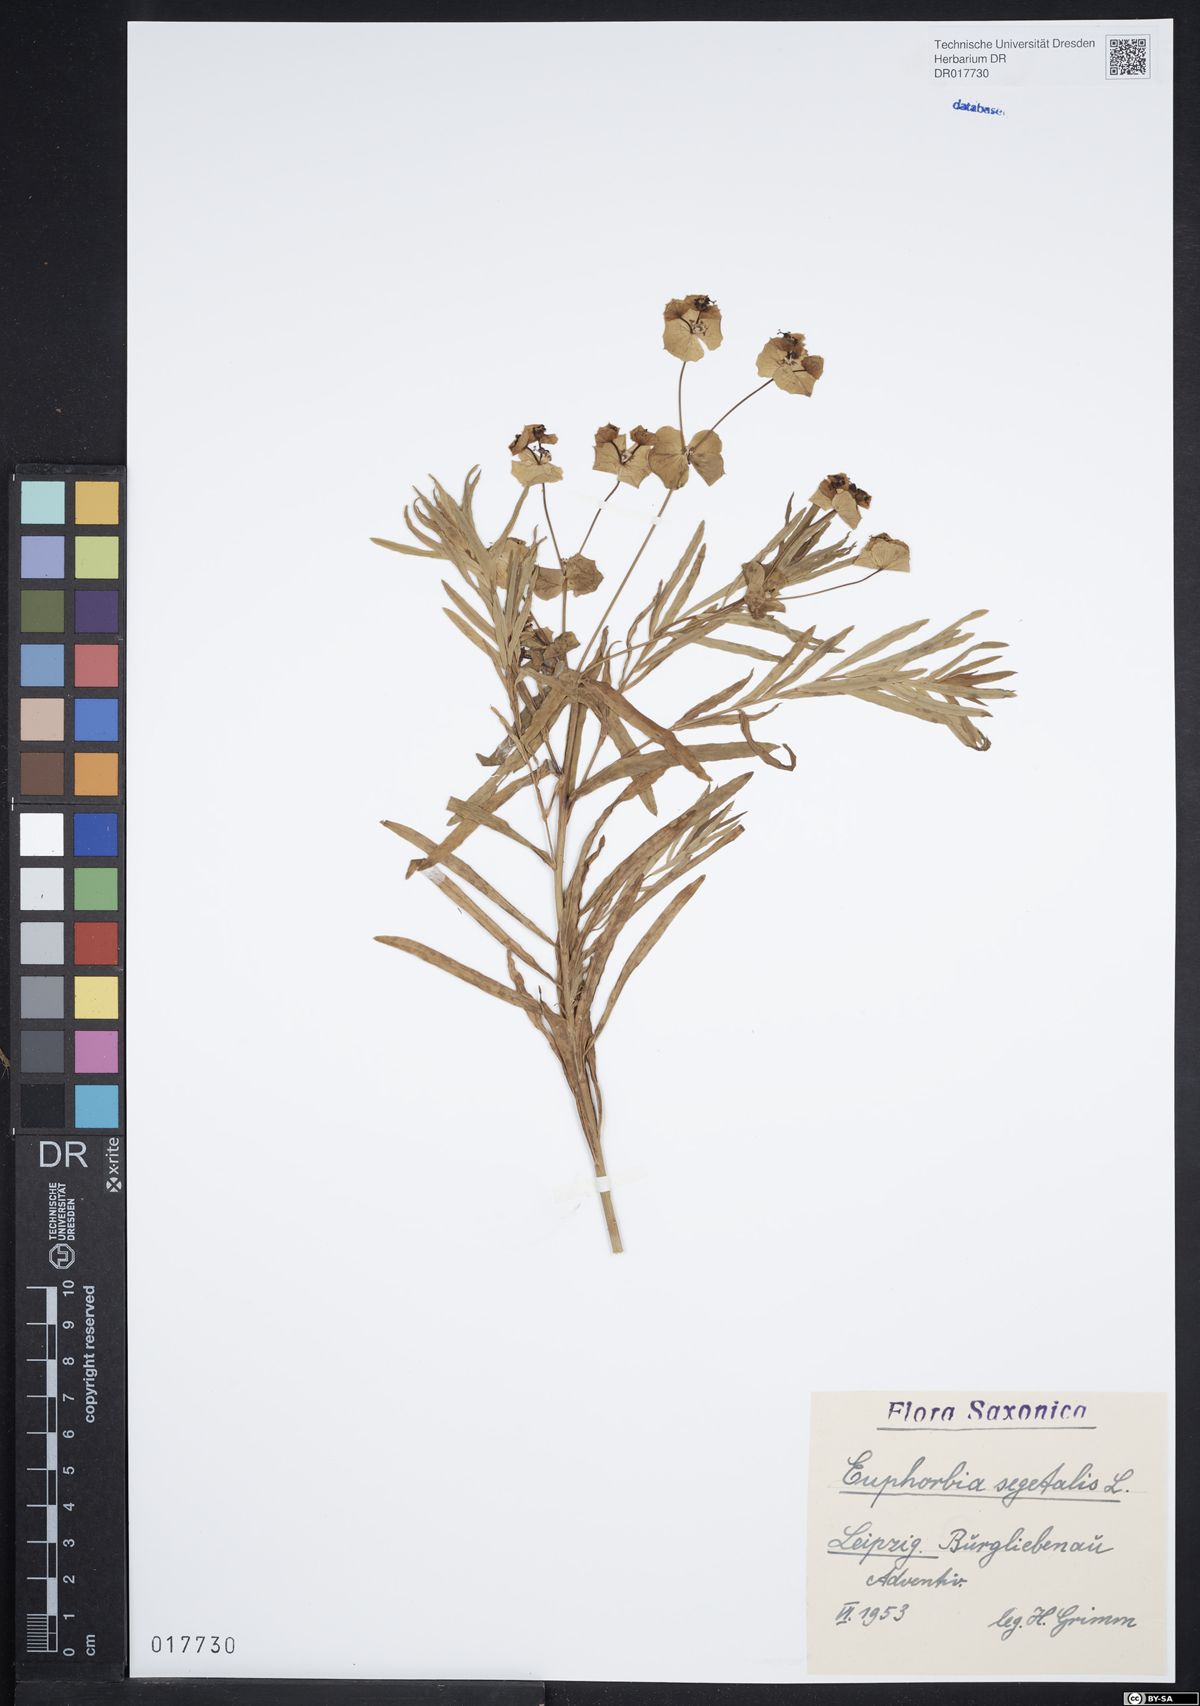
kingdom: Plantae
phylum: Tracheophyta
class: Magnoliopsida
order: Malpighiales
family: Euphorbiaceae
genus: Euphorbia
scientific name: Euphorbia segetalis
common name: Corn spurge
